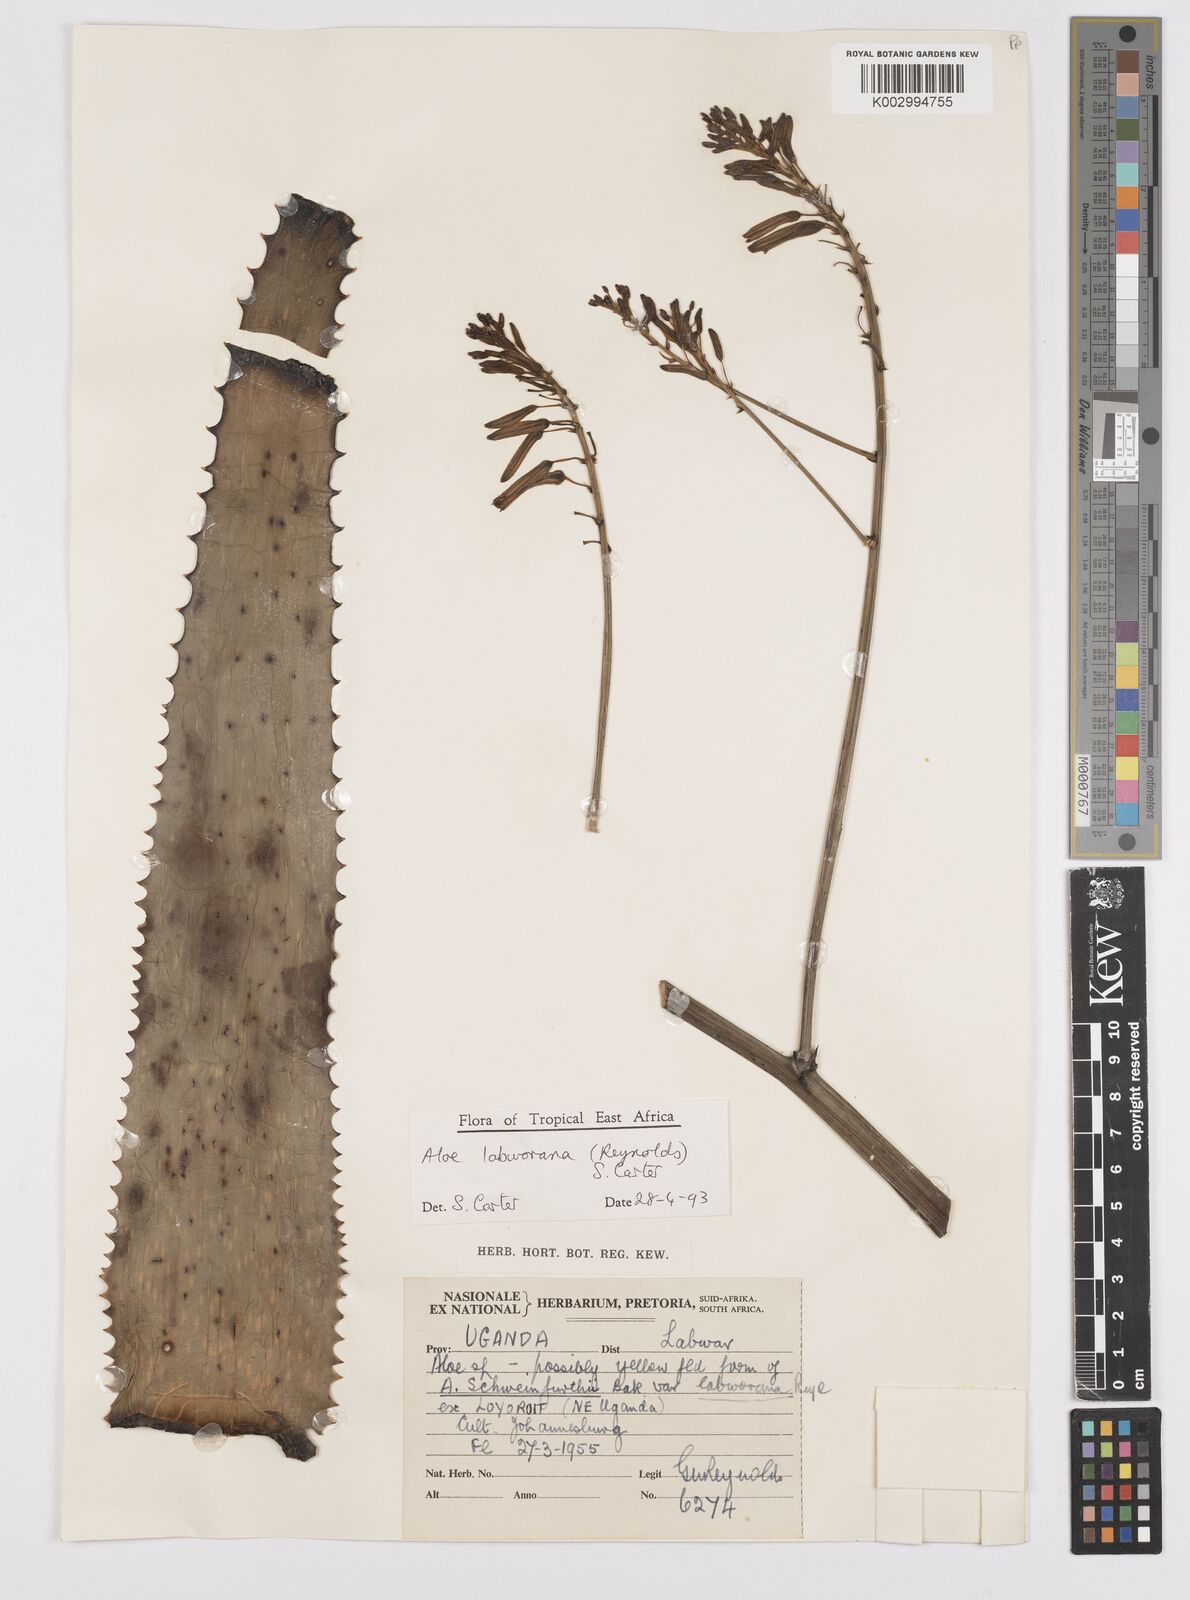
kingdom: Plantae
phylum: Tracheophyta
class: Liliopsida
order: Asparagales
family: Asphodelaceae
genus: Aloe
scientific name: Aloe labworana
